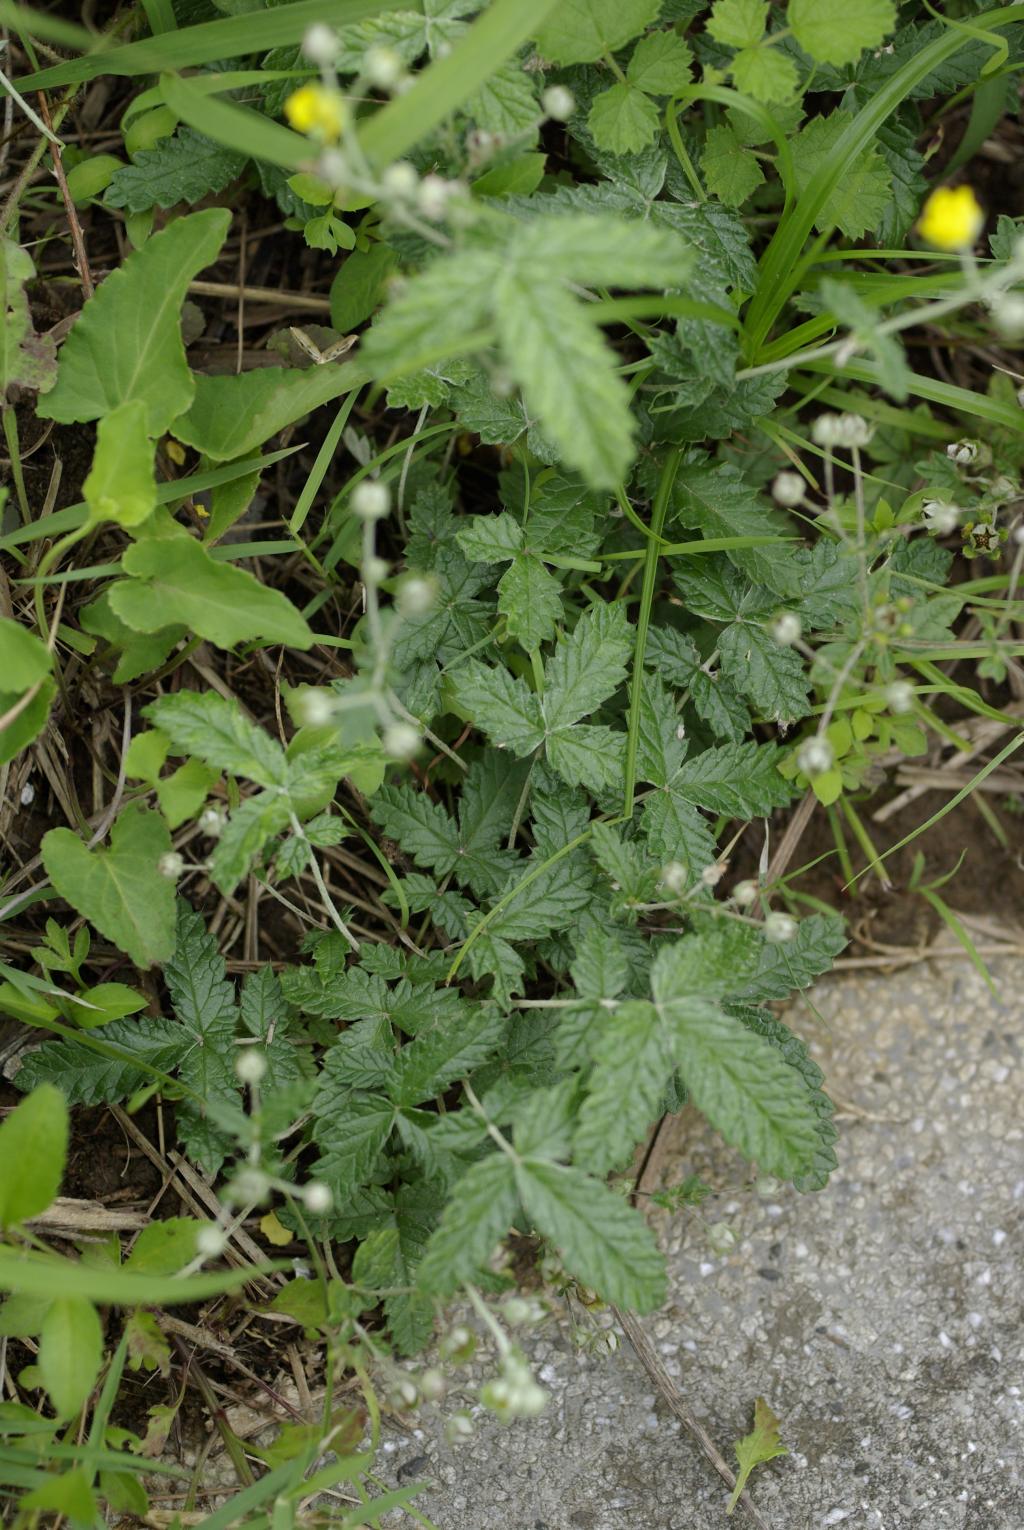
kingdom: Plantae
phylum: Tracheophyta
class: Magnoliopsida
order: Rosales
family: Rosaceae
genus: Potentilla
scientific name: Potentilla discolor
